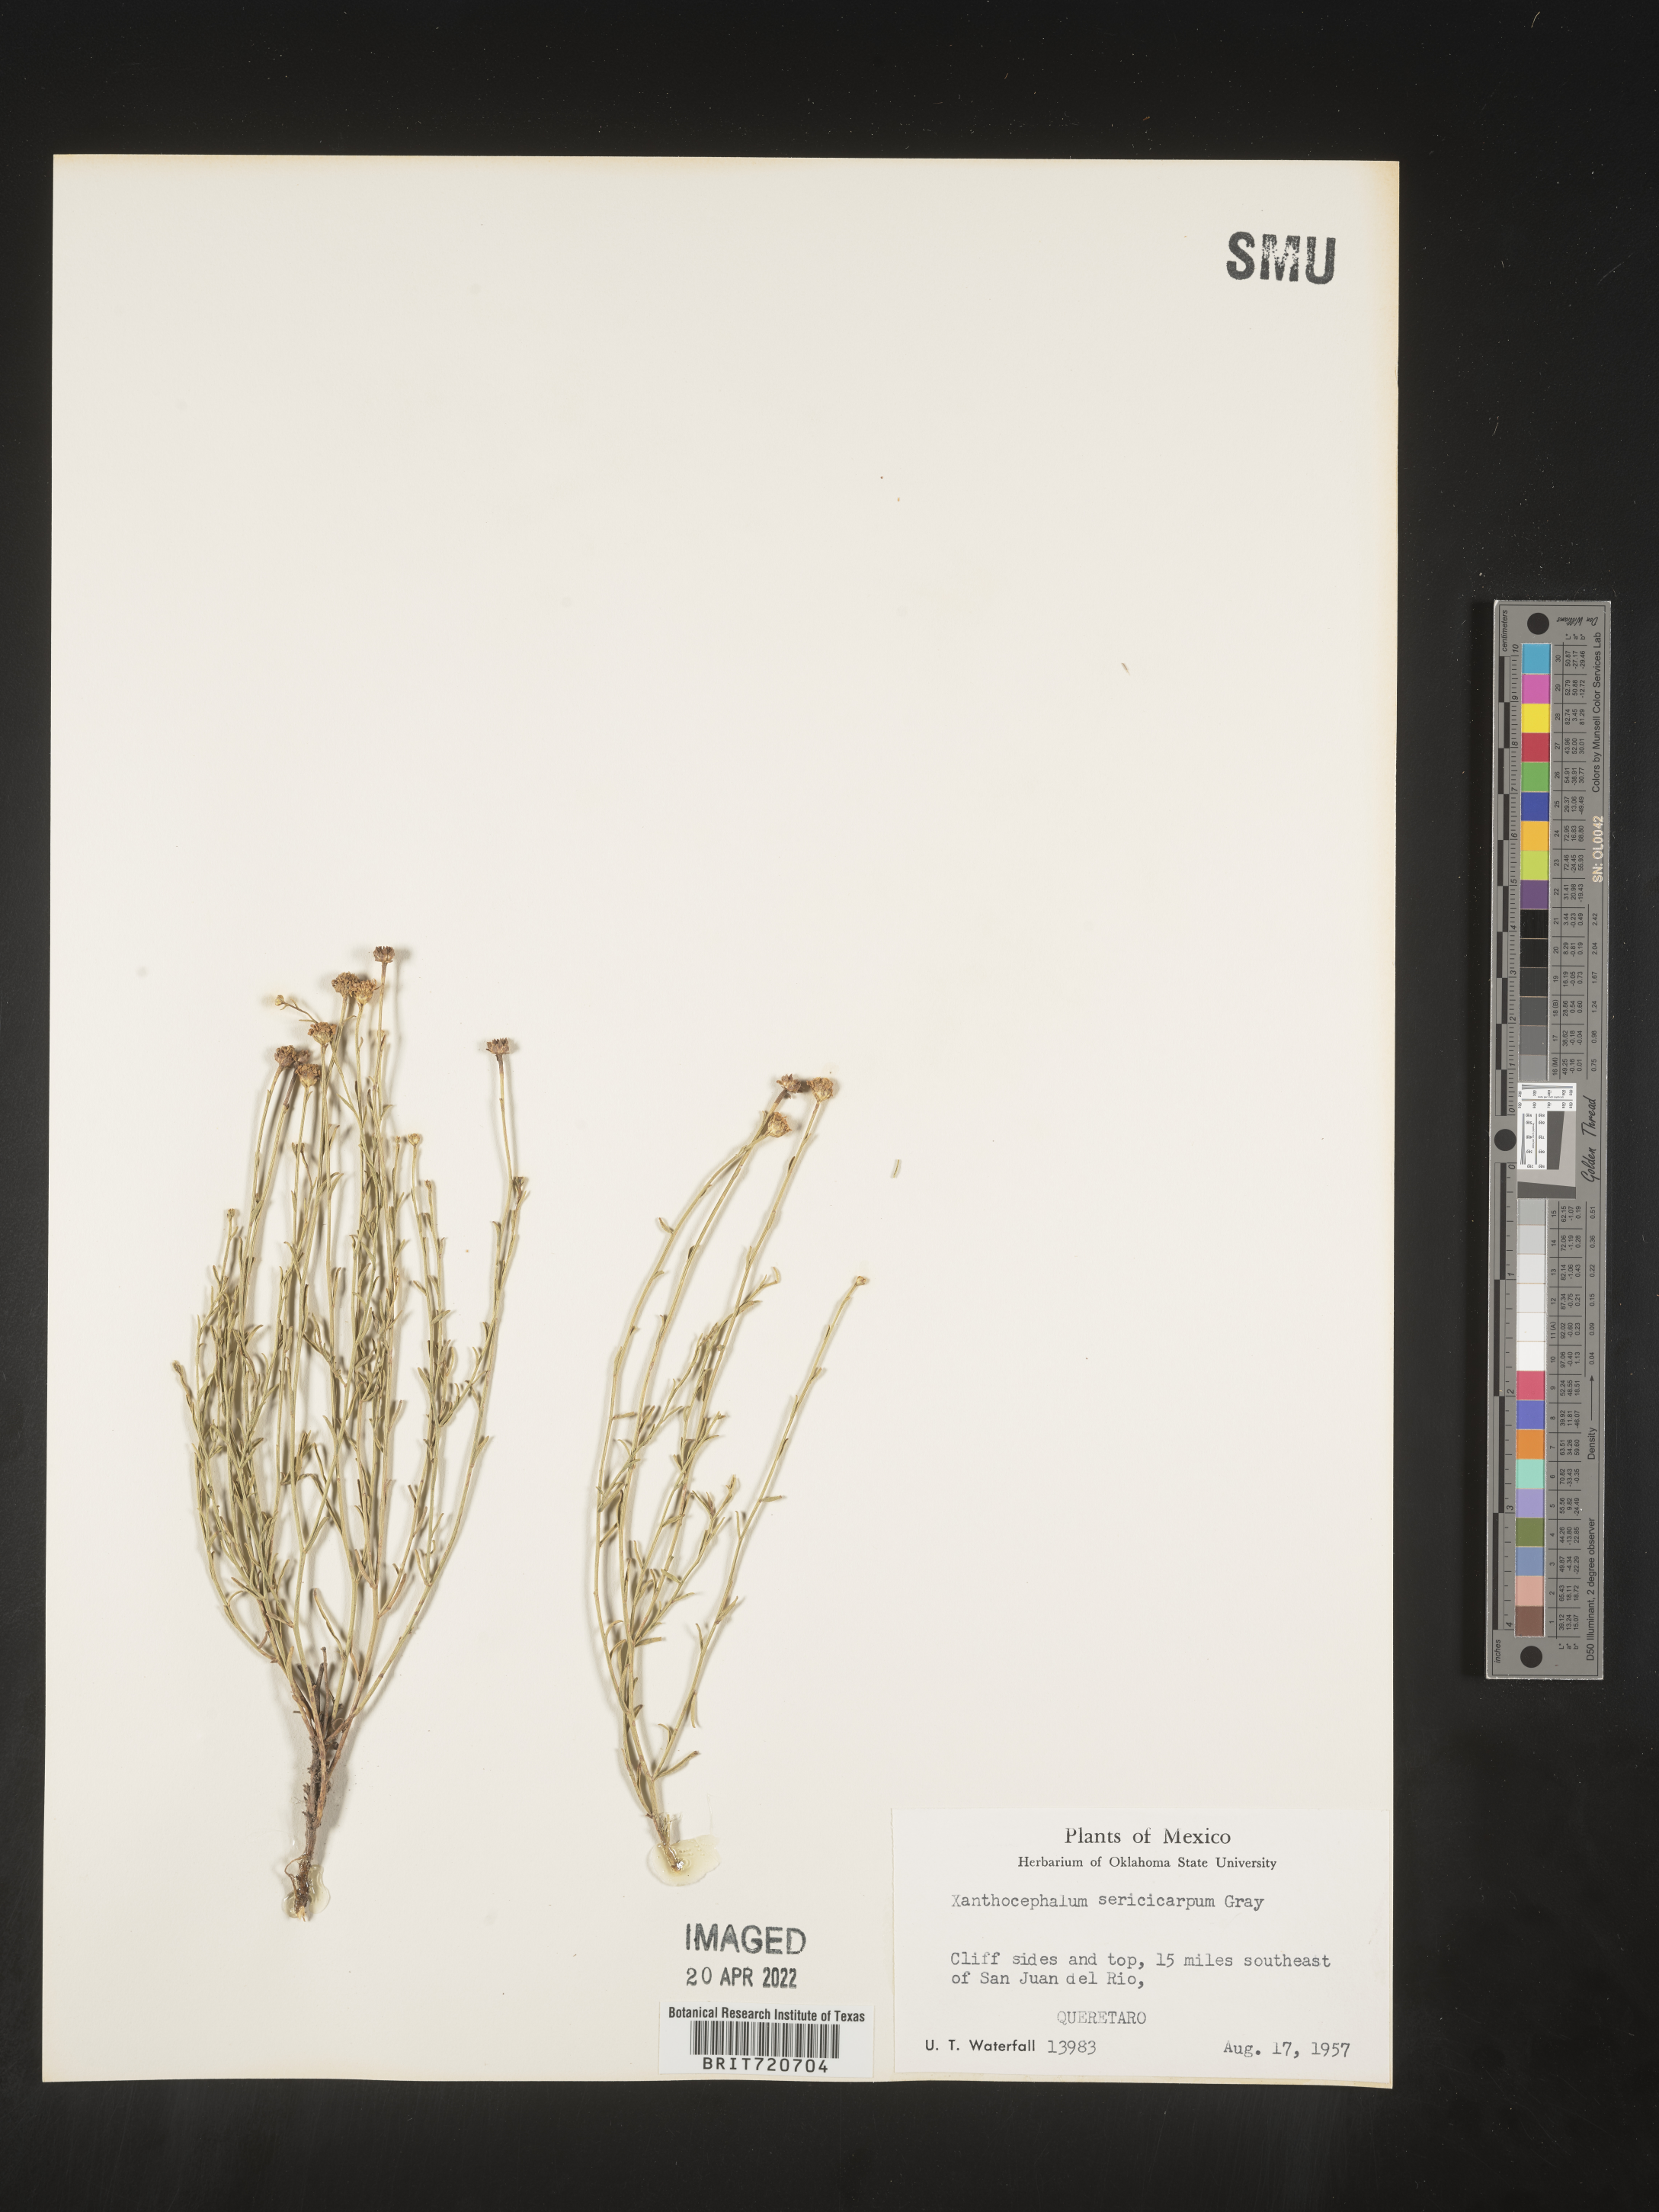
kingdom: Plantae
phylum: Tracheophyta
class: Magnoliopsida
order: Asterales
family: Asteraceae
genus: Gutierrezia
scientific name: Gutierrezia sericocarpa
